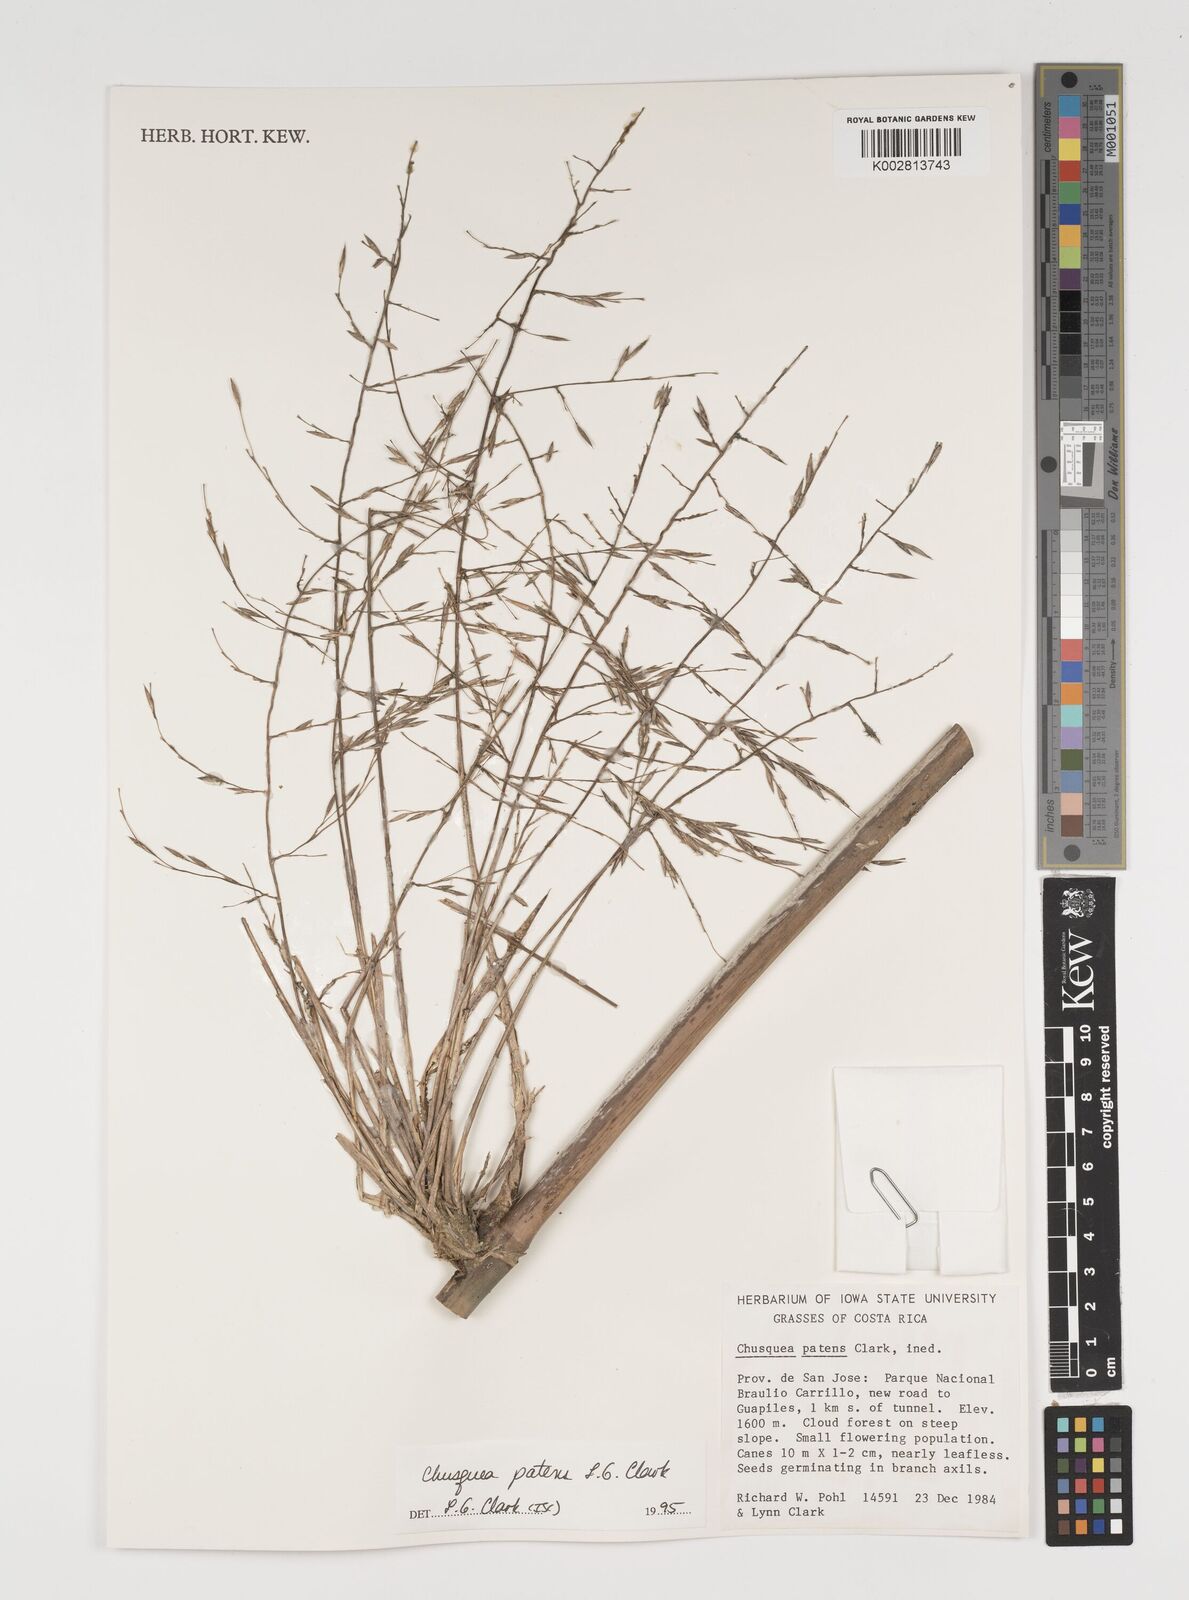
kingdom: Plantae
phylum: Tracheophyta
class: Liliopsida
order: Poales
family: Poaceae
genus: Chusquea
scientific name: Chusquea patens
